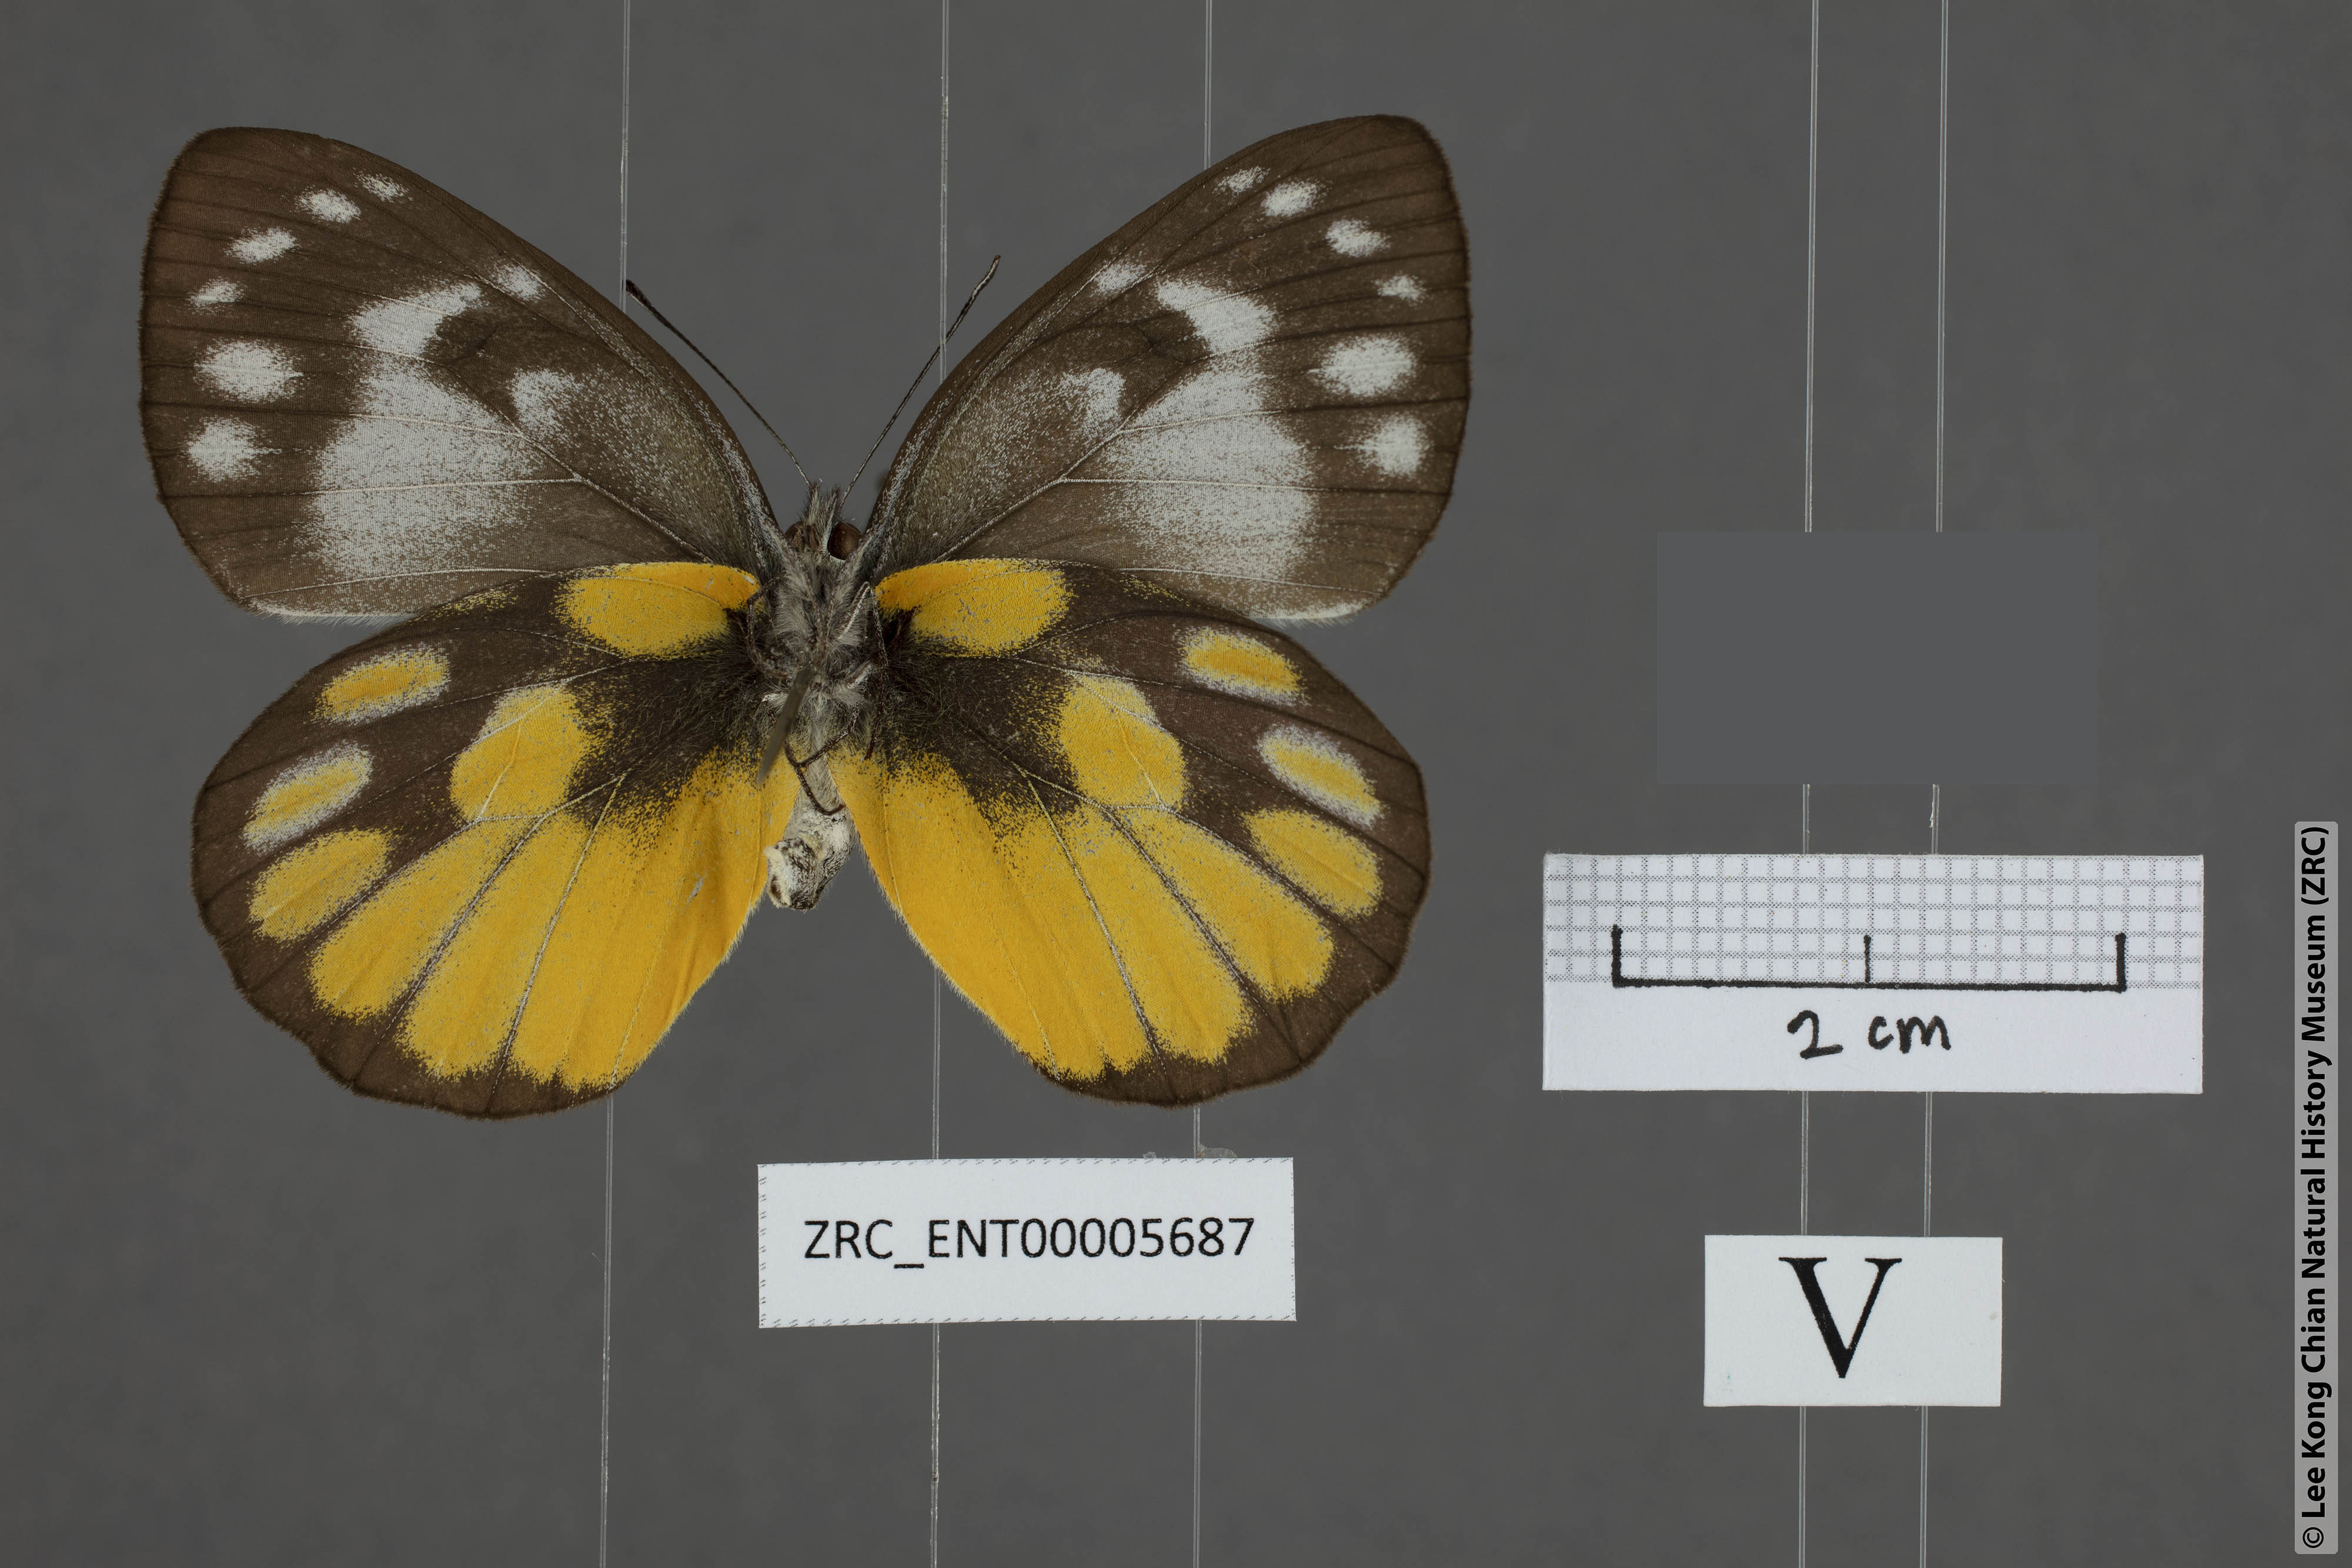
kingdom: Animalia
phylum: Arthropoda
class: Insecta
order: Lepidoptera
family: Pieridae
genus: Delias
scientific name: Delias georgina
